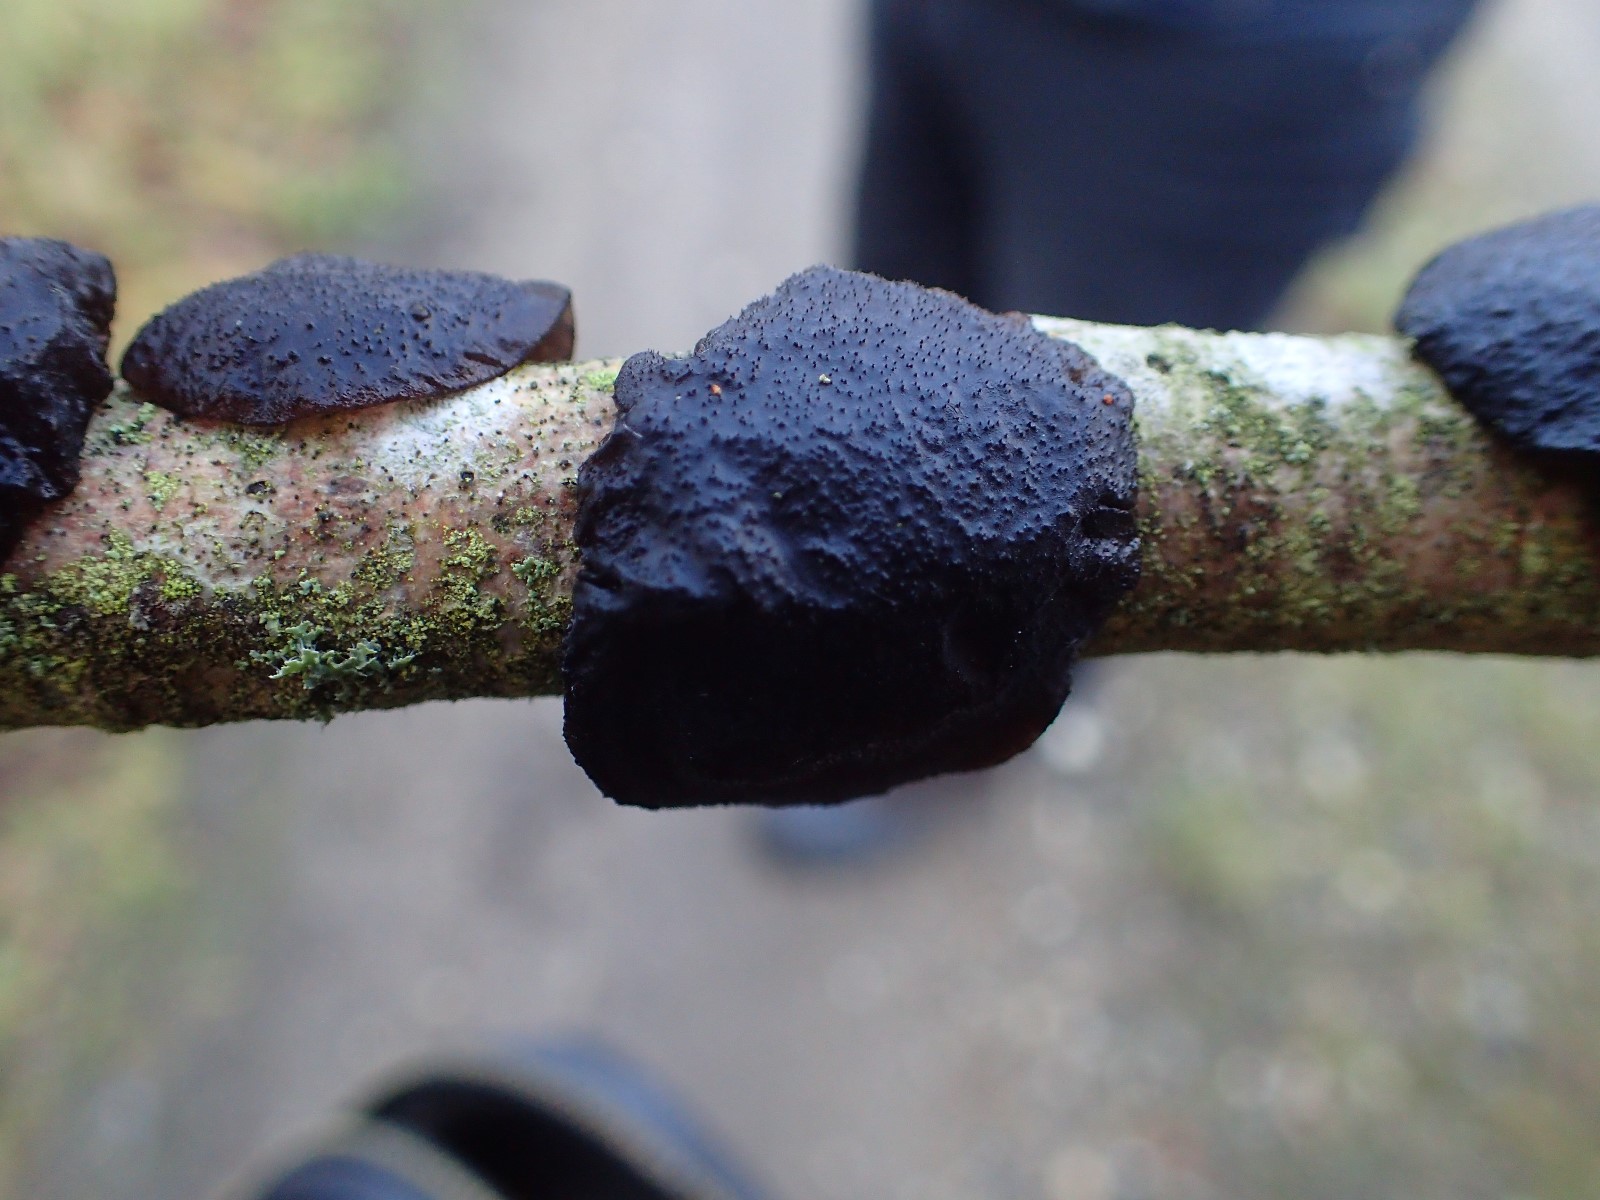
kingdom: Fungi
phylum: Basidiomycota
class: Agaricomycetes
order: Auriculariales
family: Auriculariaceae
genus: Exidia
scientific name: Exidia glandulosa
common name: ege-bævretop
